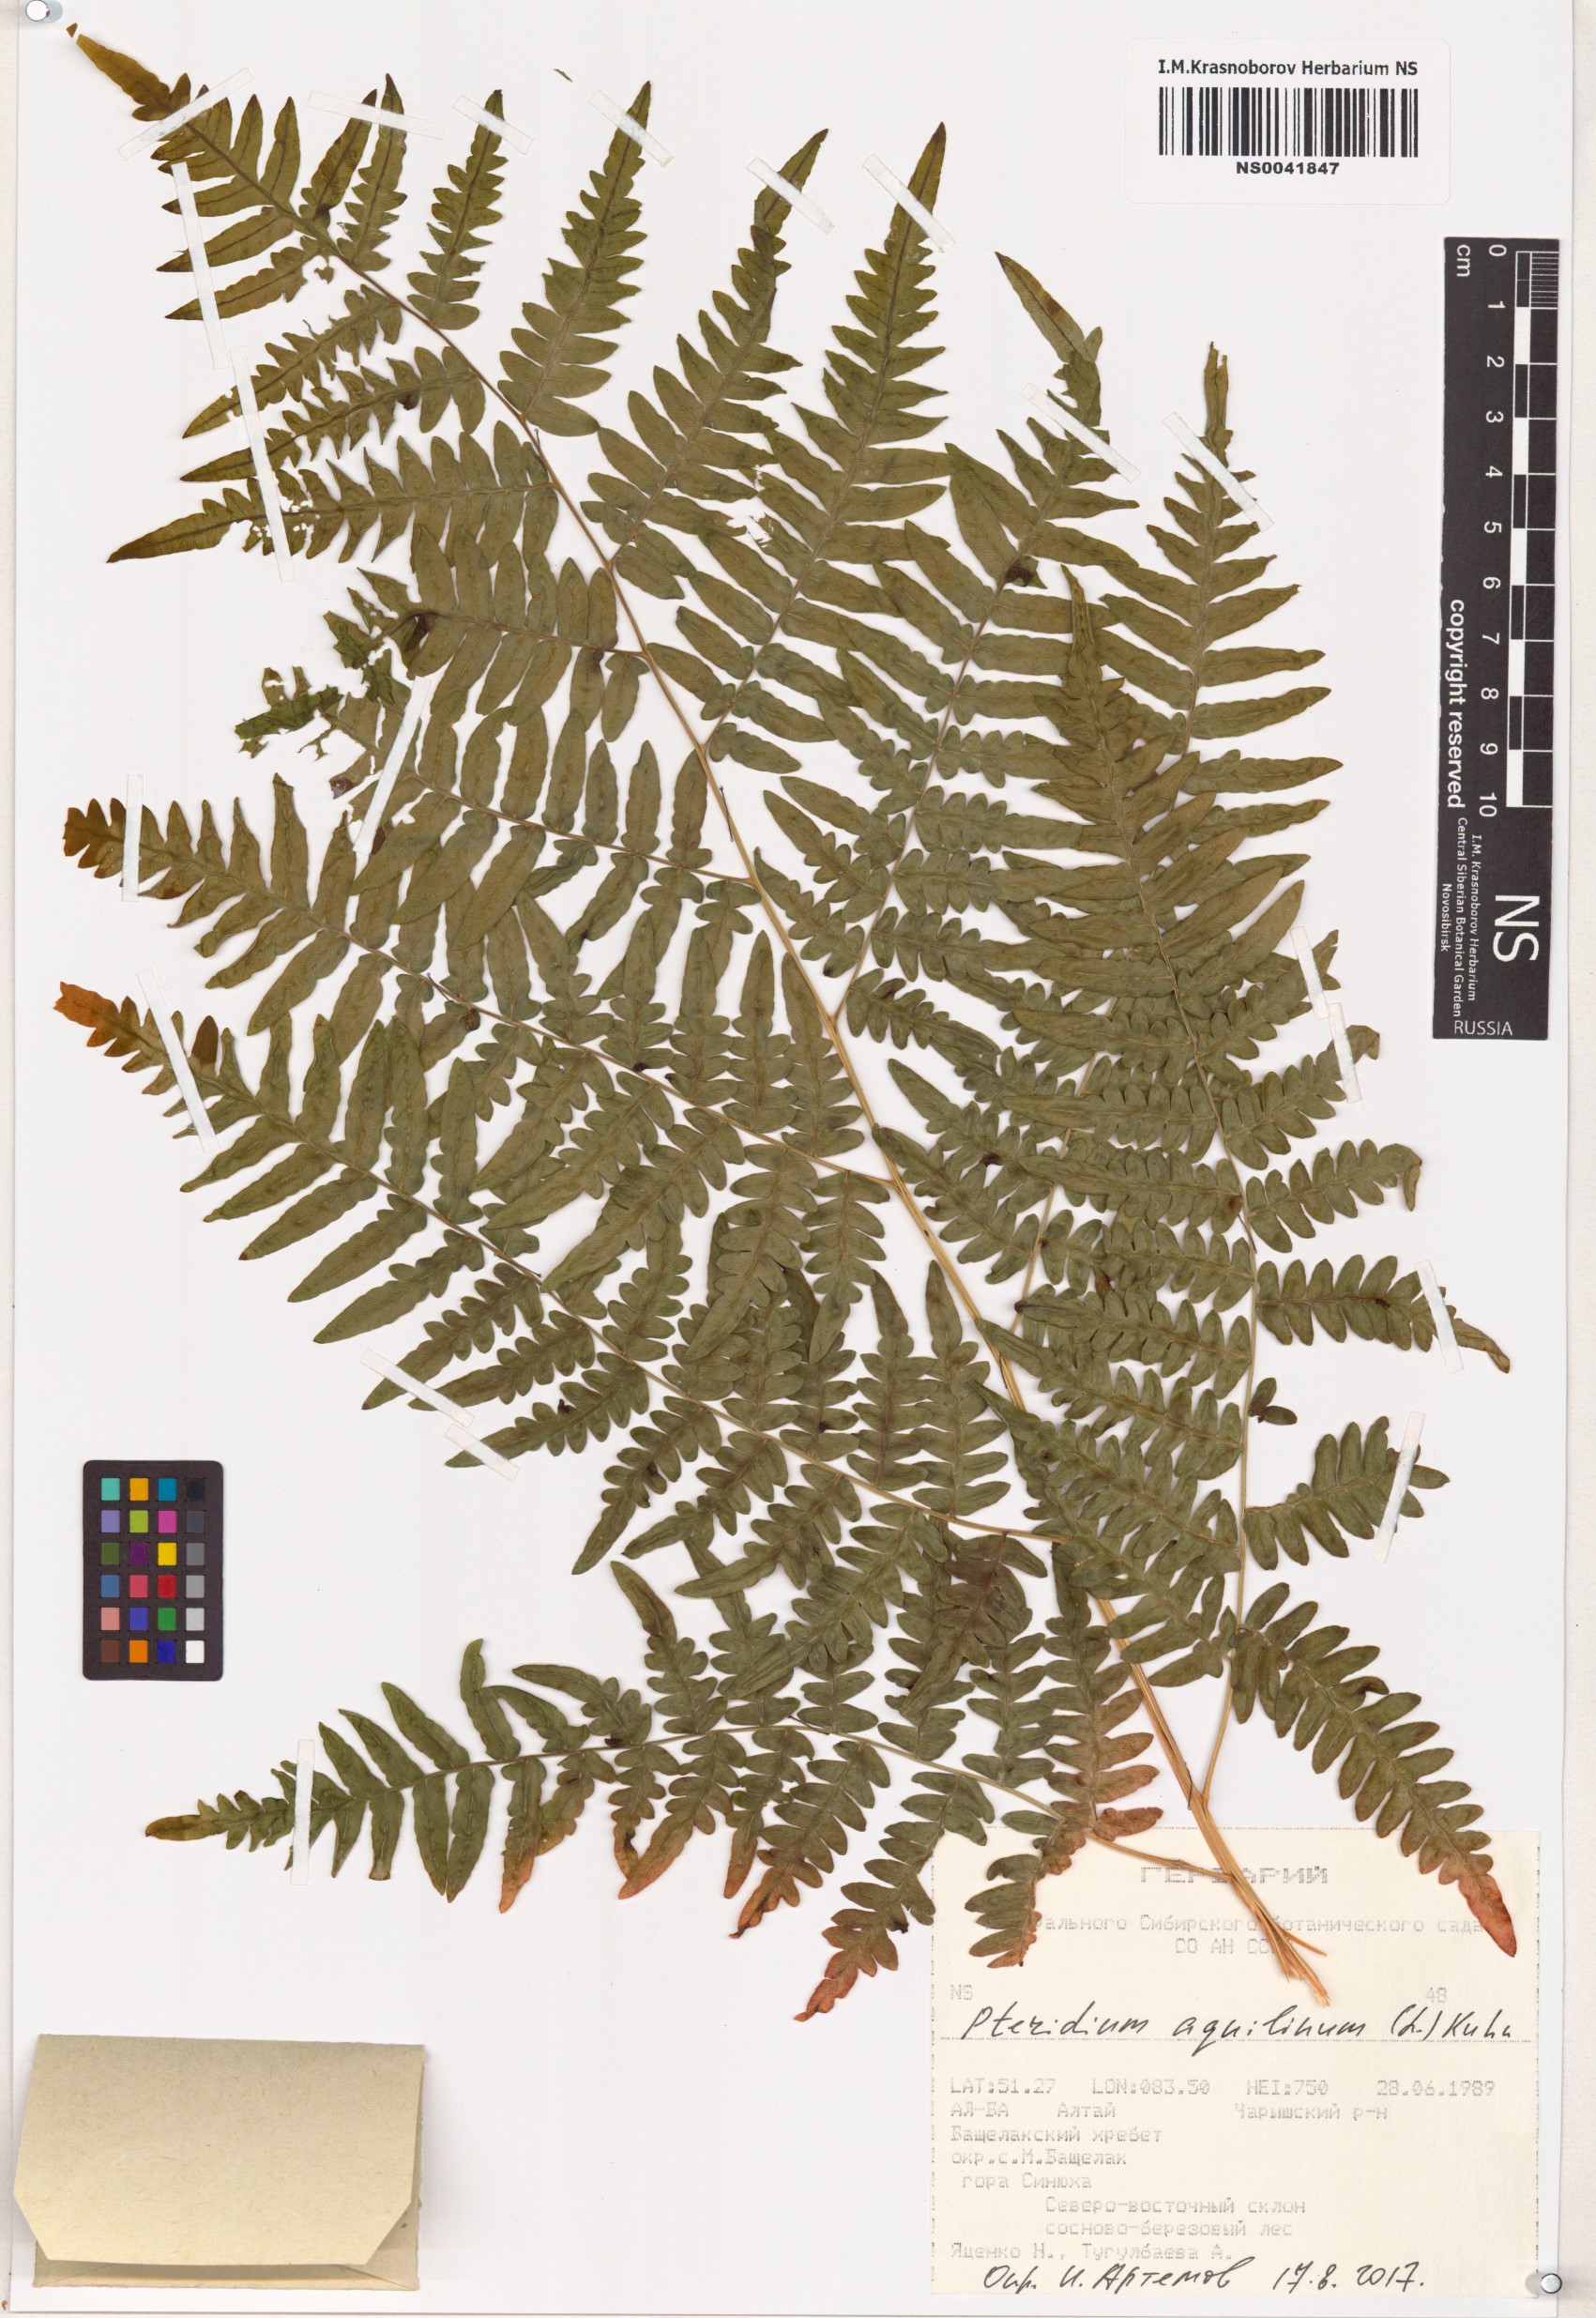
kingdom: Plantae
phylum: Tracheophyta
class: Polypodiopsida
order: Polypodiales
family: Dennstaedtiaceae
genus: Pteridium
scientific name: Pteridium aquilinum
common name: Bracken
